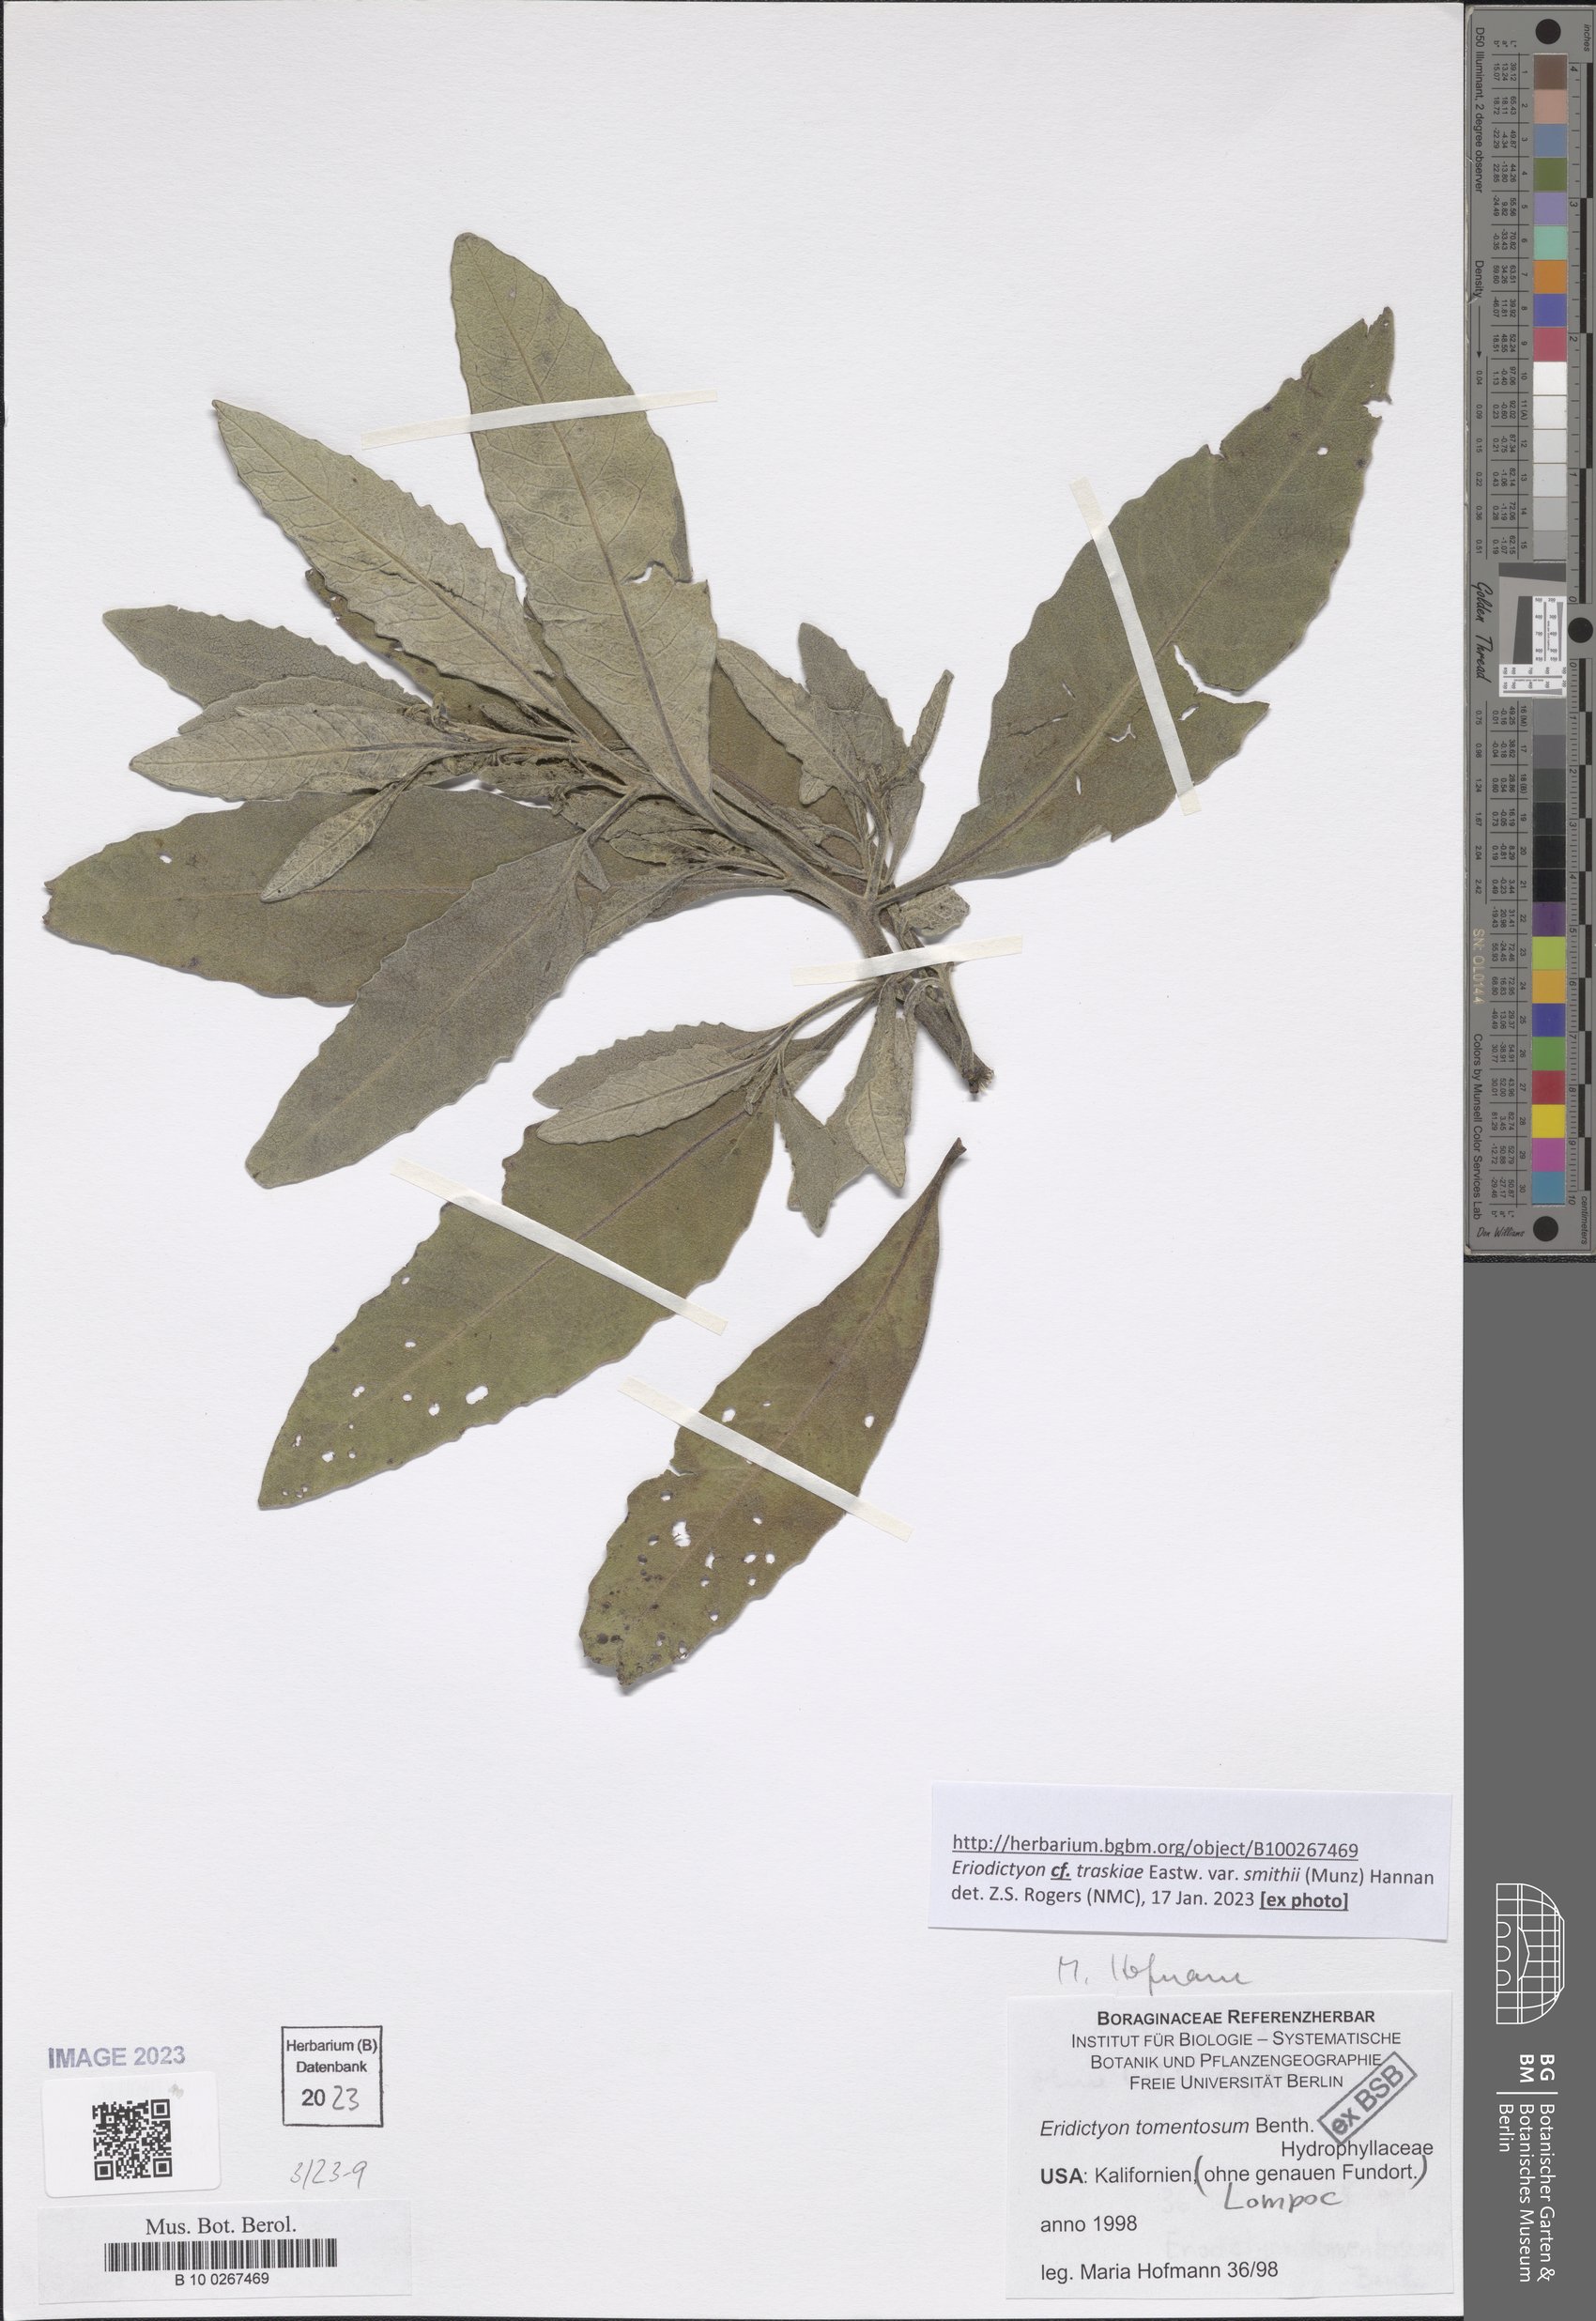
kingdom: Plantae
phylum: Tracheophyta
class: Magnoliopsida
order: Boraginales
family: Namaceae
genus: Eriodictyon
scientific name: Eriodictyon traskiae
